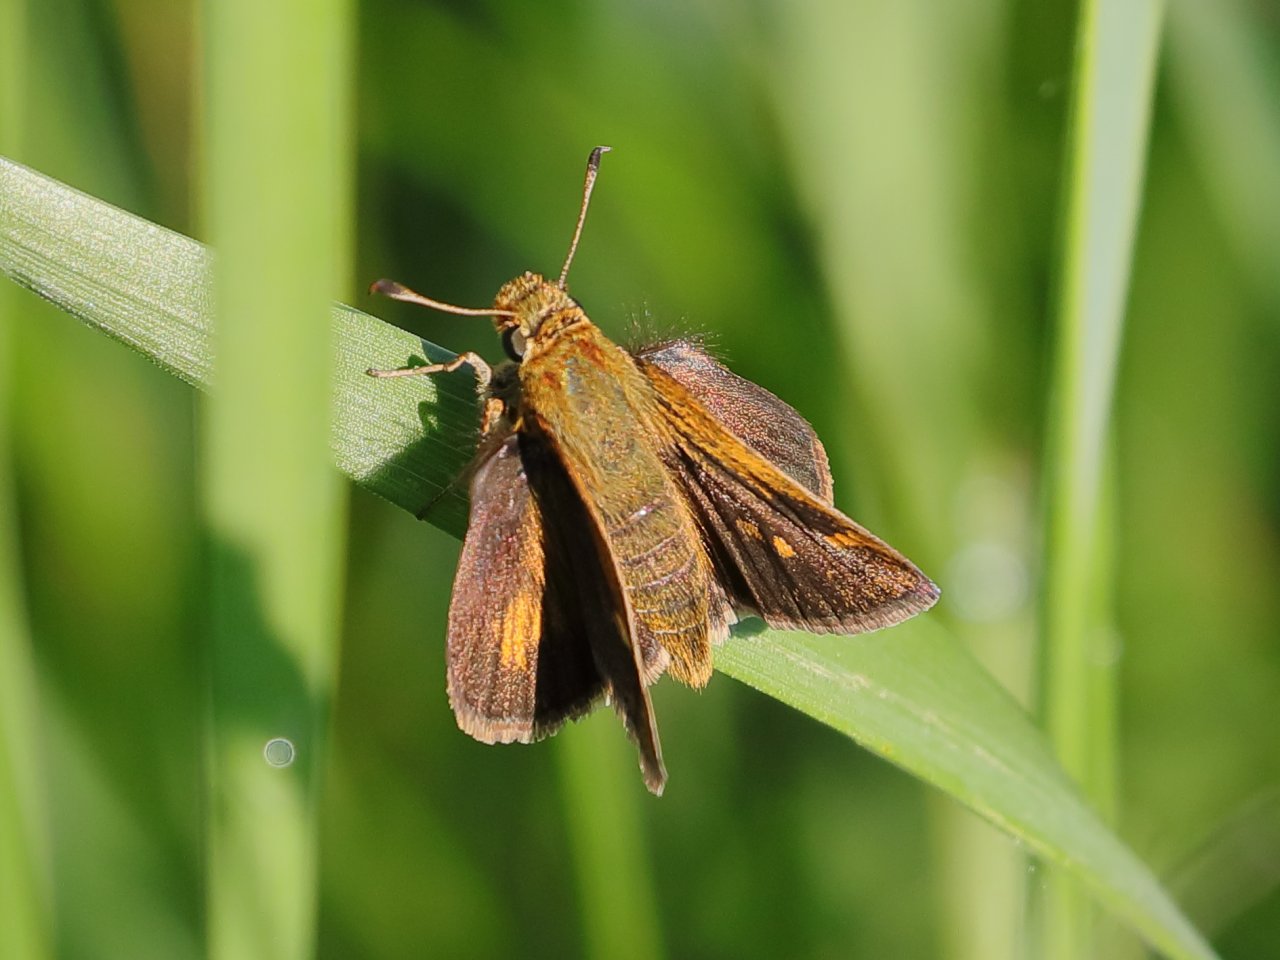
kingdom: Animalia
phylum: Arthropoda
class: Insecta
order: Lepidoptera
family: Hesperiidae
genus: Polites
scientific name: Polites themistocles
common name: Tawny-edged Skipper
